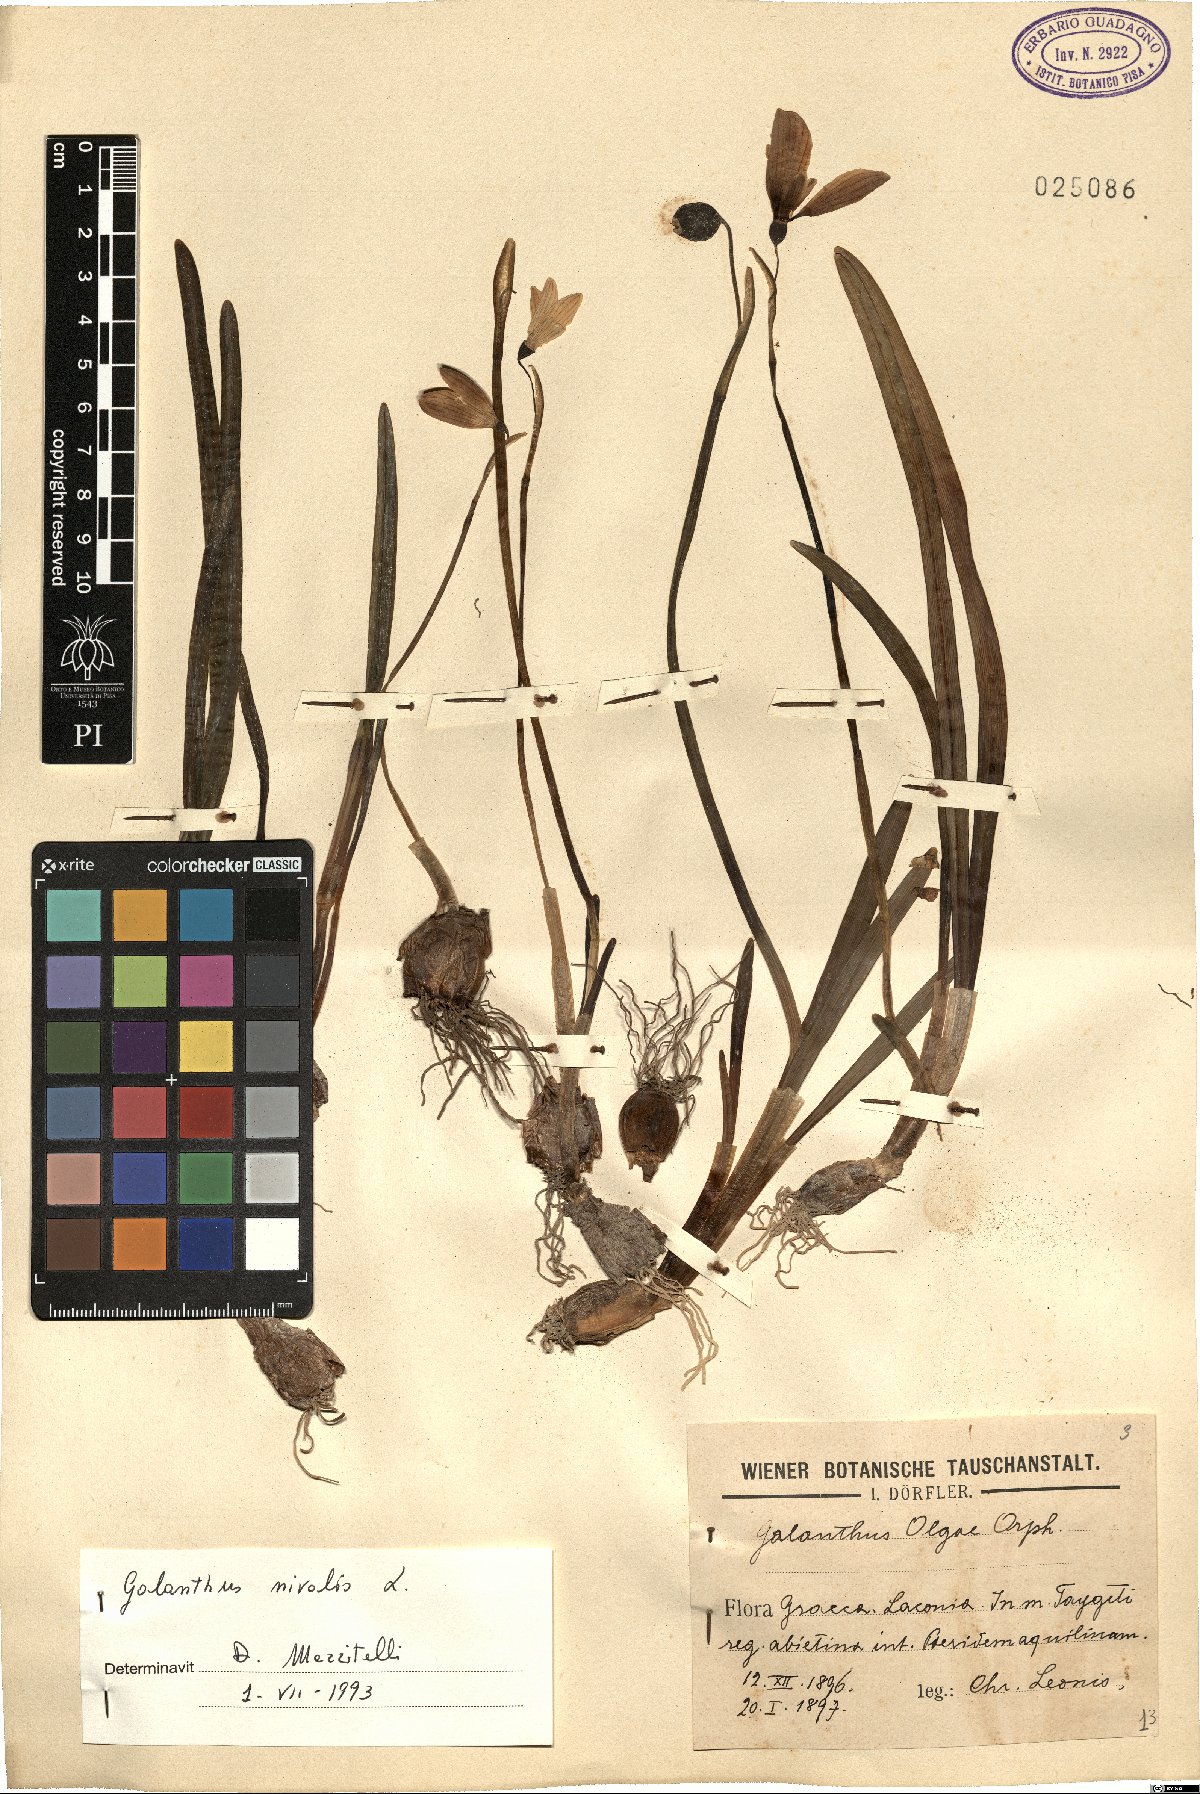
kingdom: Plantae
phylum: Tracheophyta
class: Liliopsida
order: Asparagales
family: Amaryllidaceae
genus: Galanthus
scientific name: Galanthus nivalis
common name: Snowdrop
